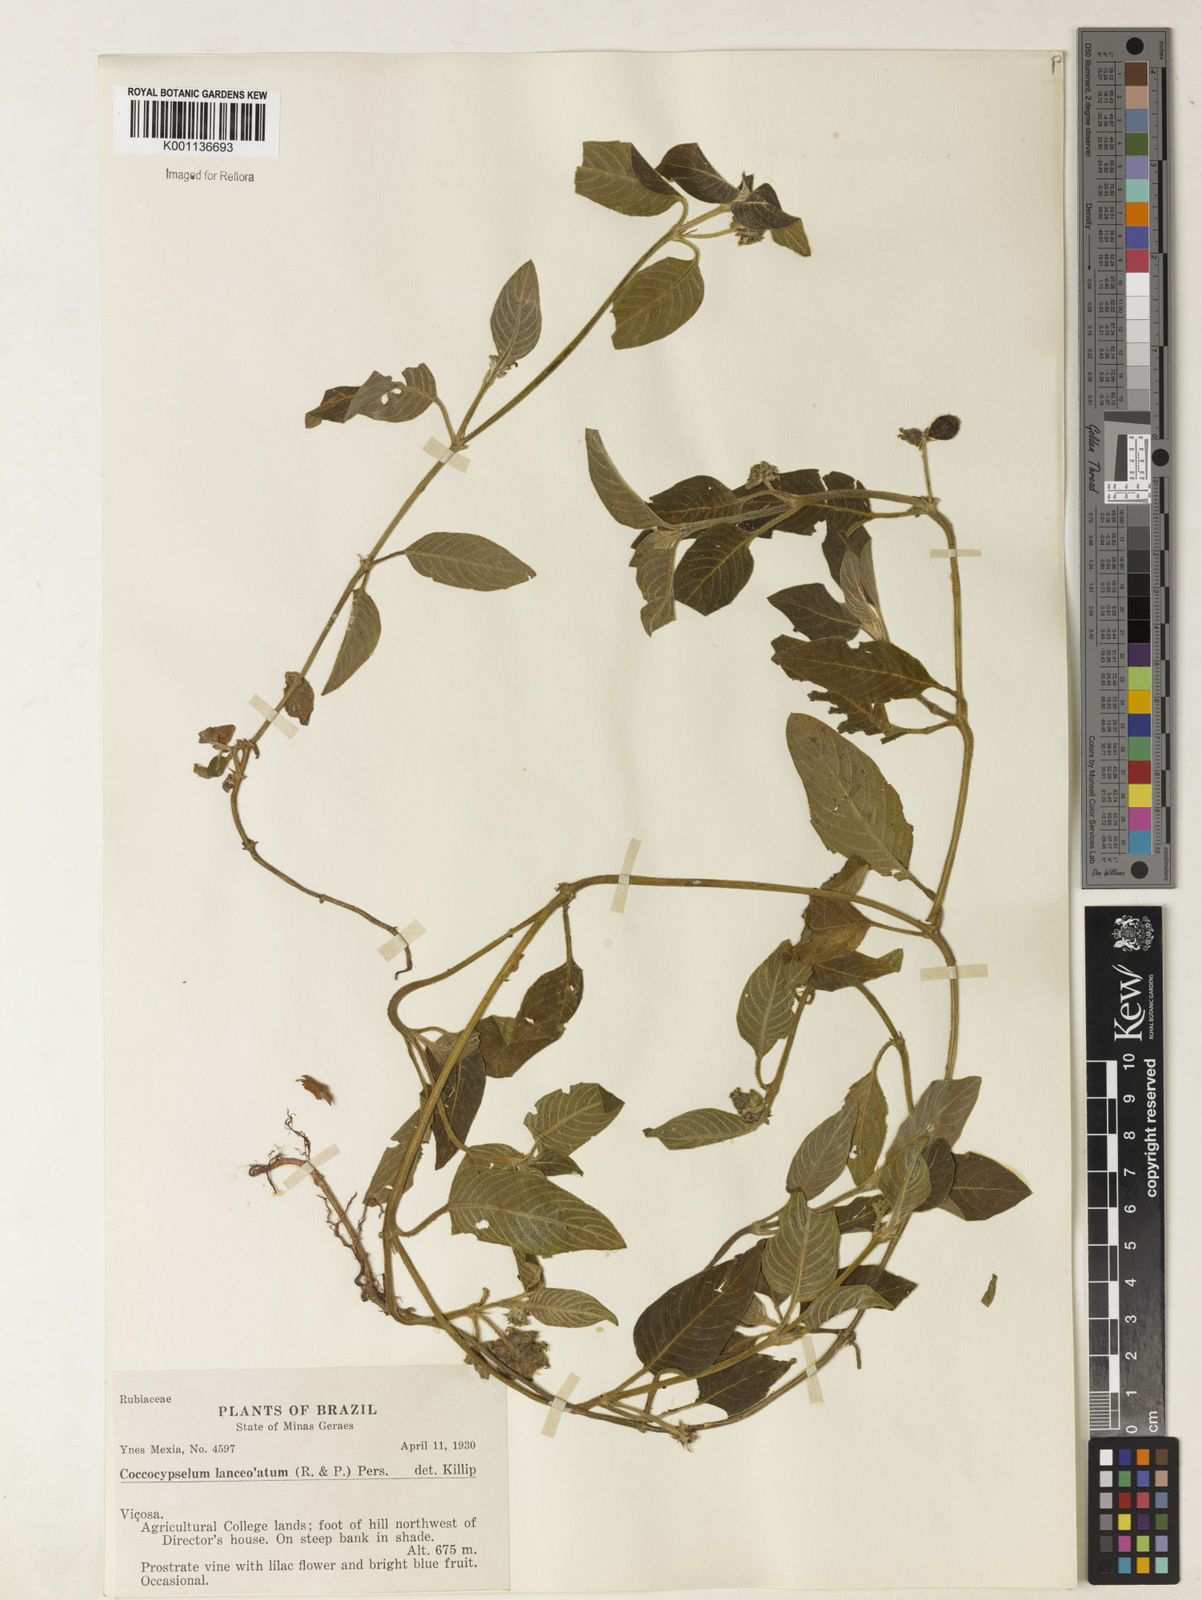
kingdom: Plantae
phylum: Tracheophyta
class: Magnoliopsida
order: Gentianales
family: Rubiaceae
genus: Coccocypselum
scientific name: Coccocypselum lanceolatum
